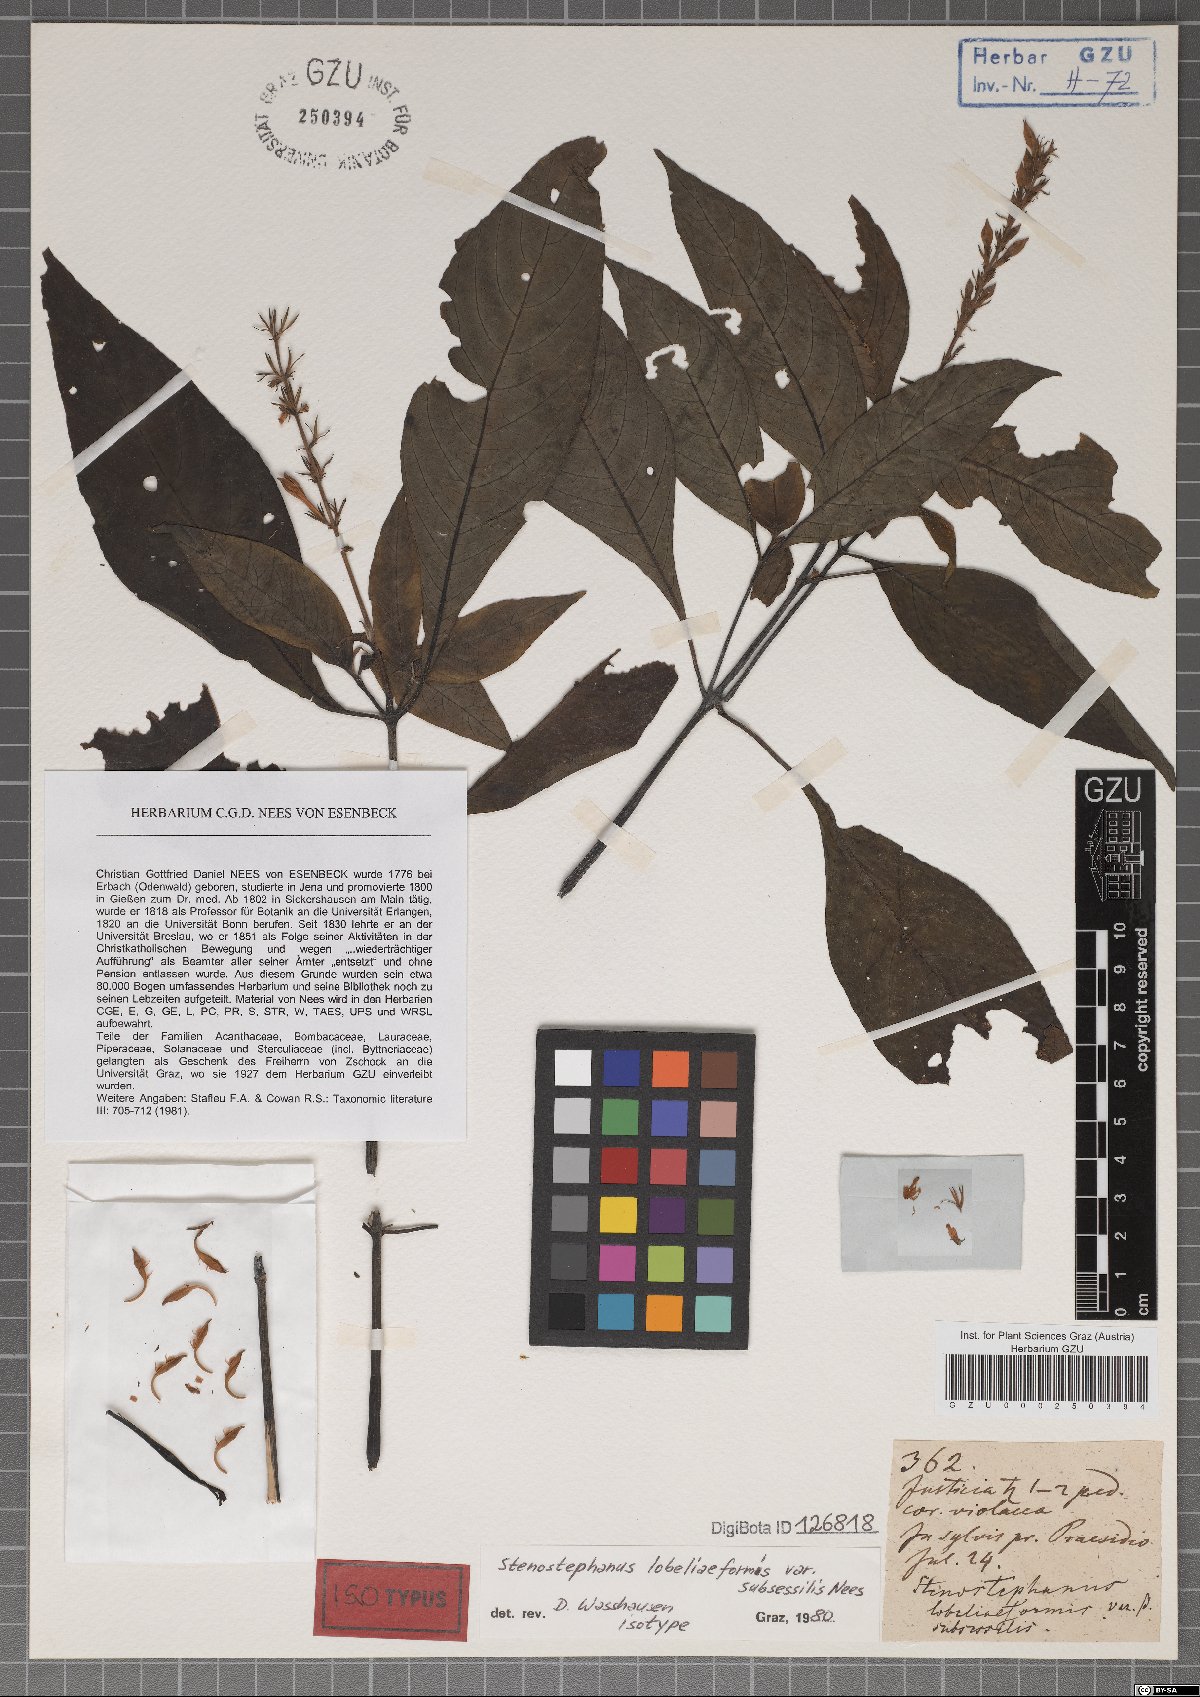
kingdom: Plantae
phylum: Tracheophyta
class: Magnoliopsida
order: Lamiales
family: Acanthaceae
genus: Stenostephanus
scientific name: Stenostephanus lobeliiformis
